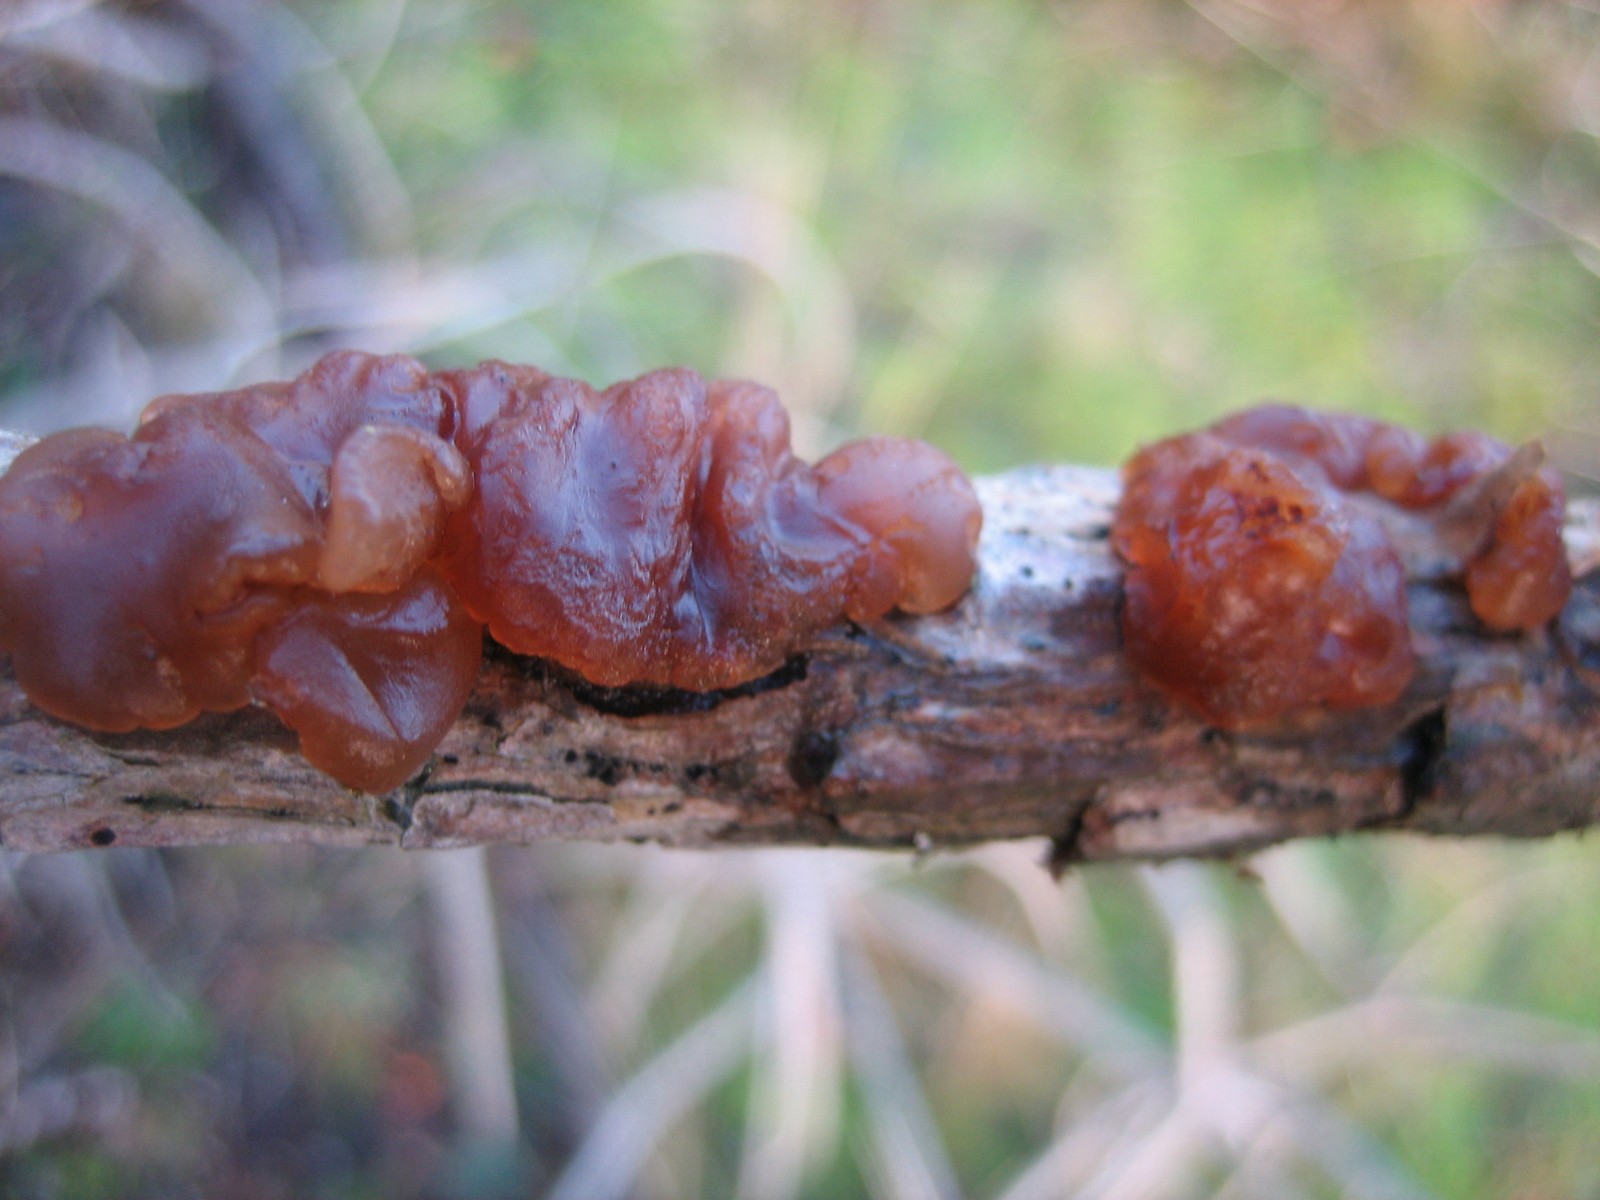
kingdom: Fungi
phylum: Basidiomycota
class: Agaricomycetes
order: Auriculariales
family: Auriculariaceae
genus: Exidia
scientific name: Exidia saccharina
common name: kandis-bævretop
